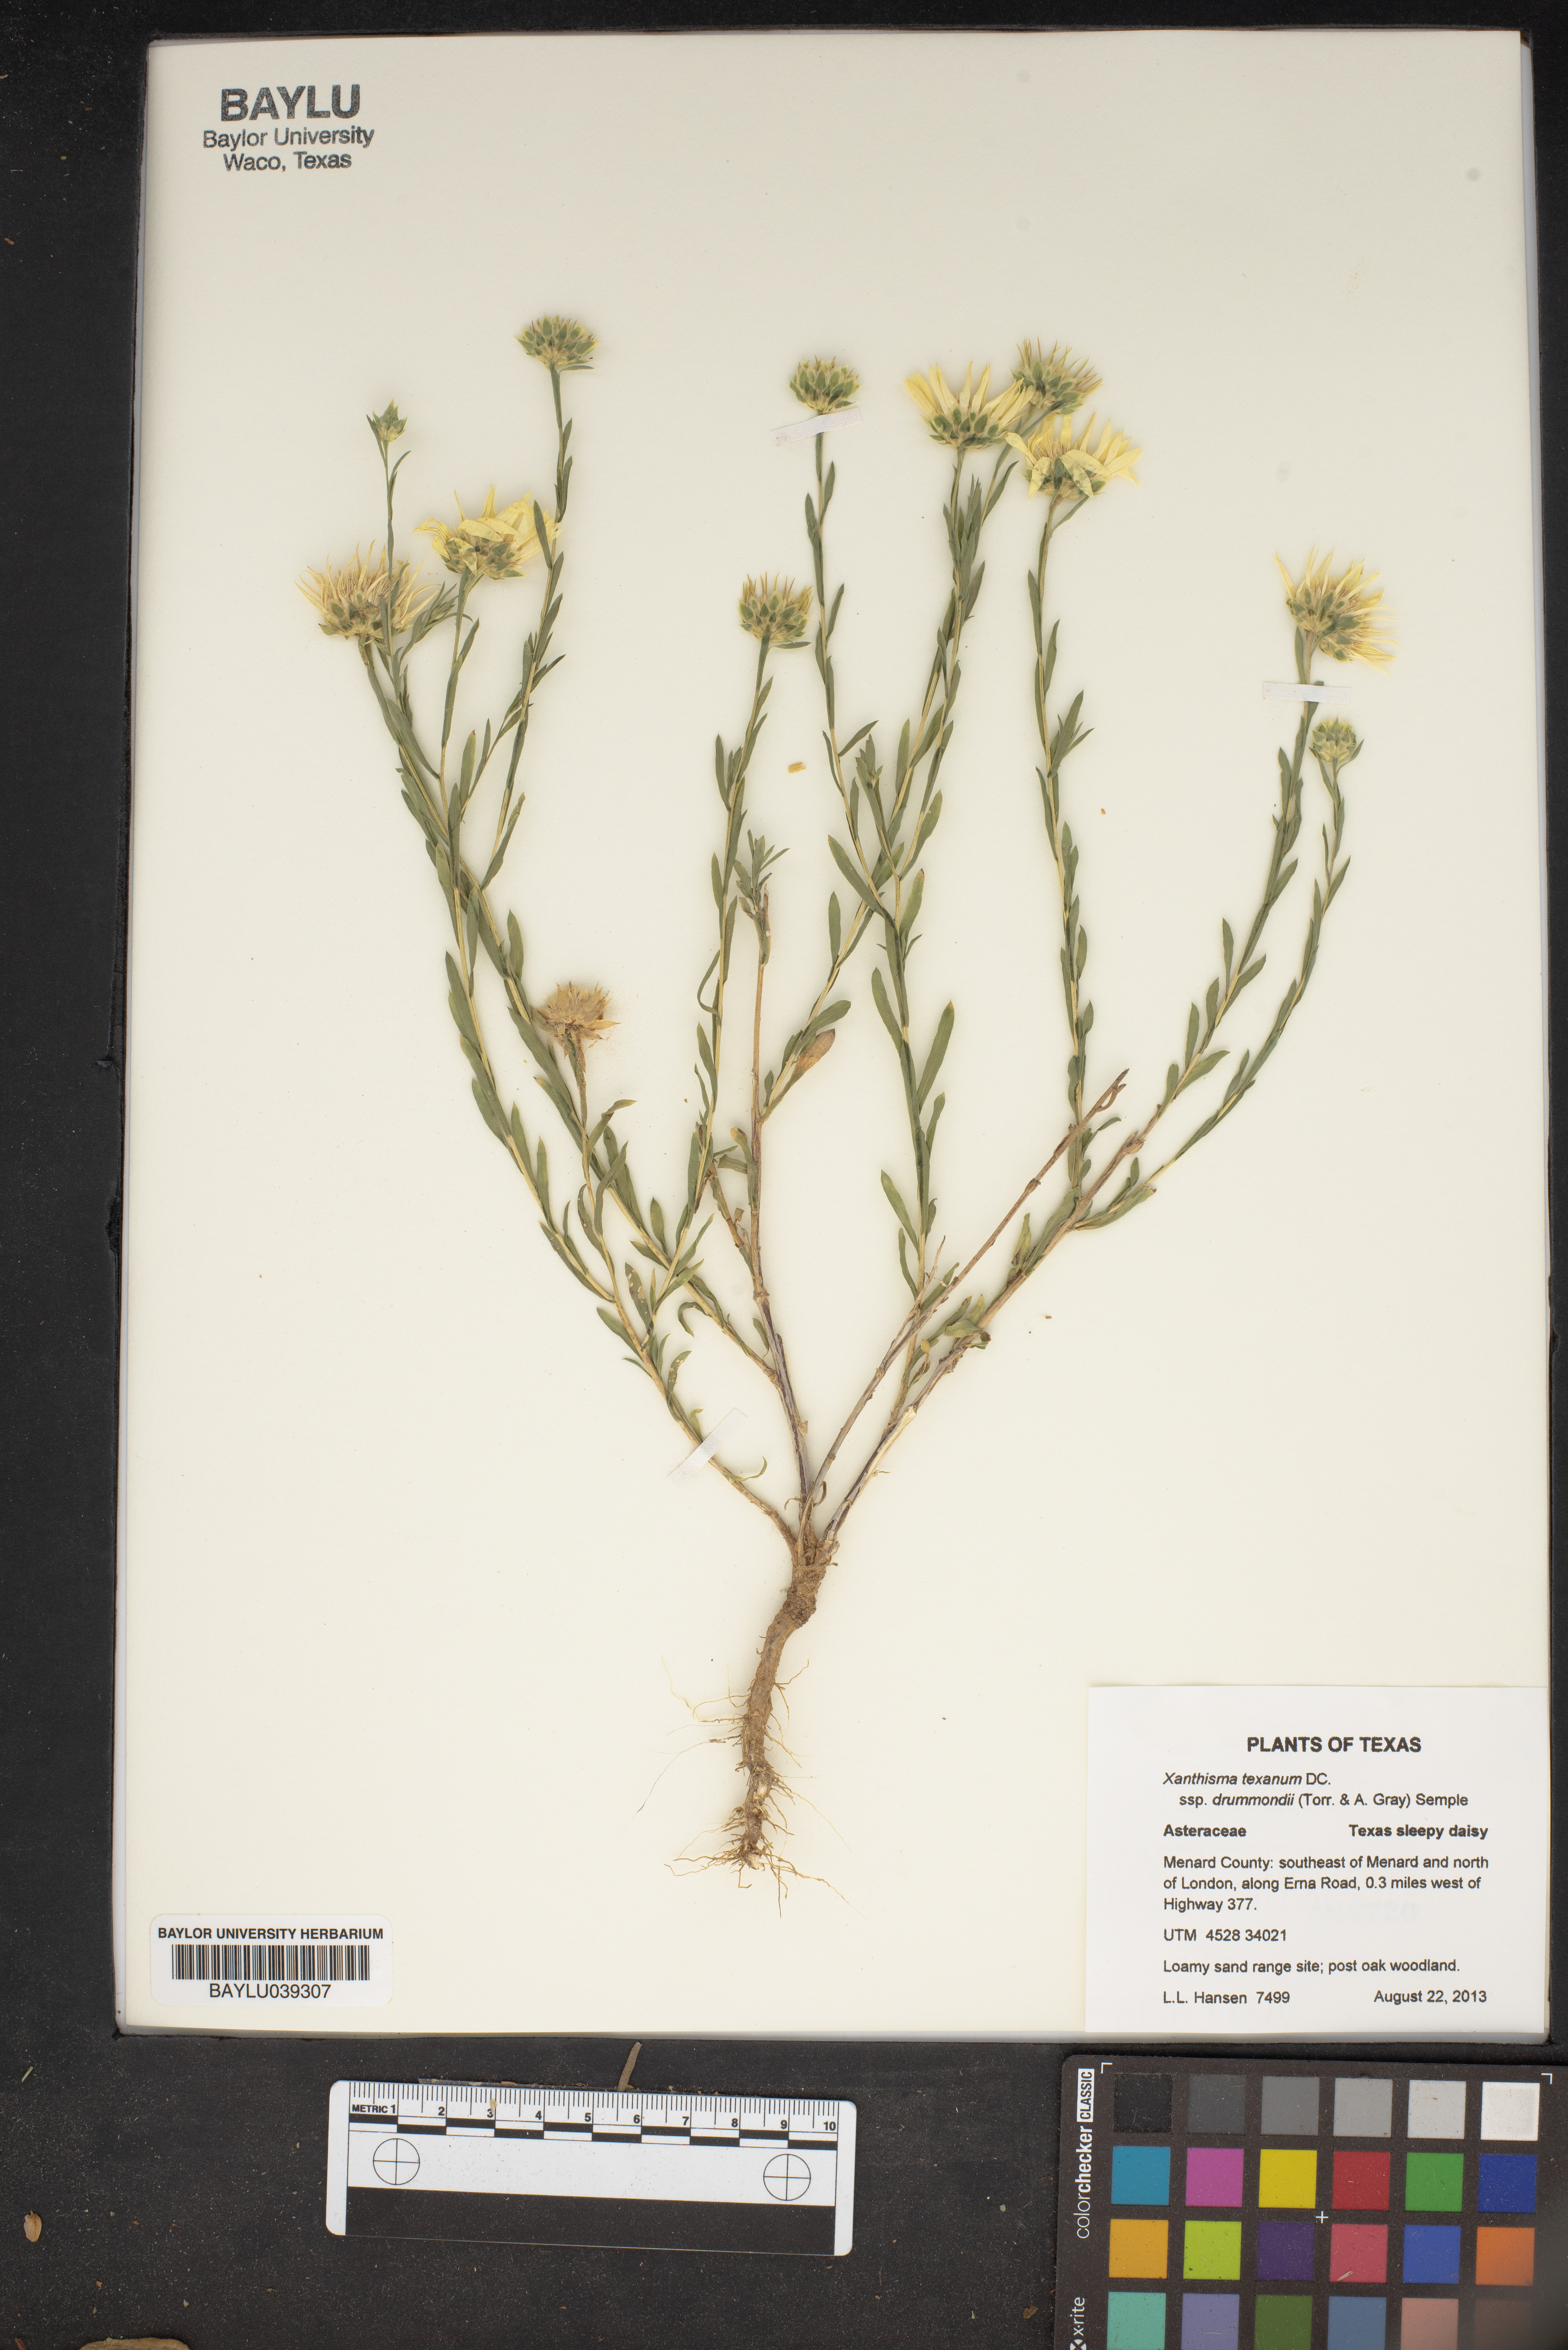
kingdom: Plantae
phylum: Tracheophyta
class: Magnoliopsida
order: Asterales
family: Asteraceae
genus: Xanthisma
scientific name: Xanthisma texanum
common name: Texas sleepy daisy
